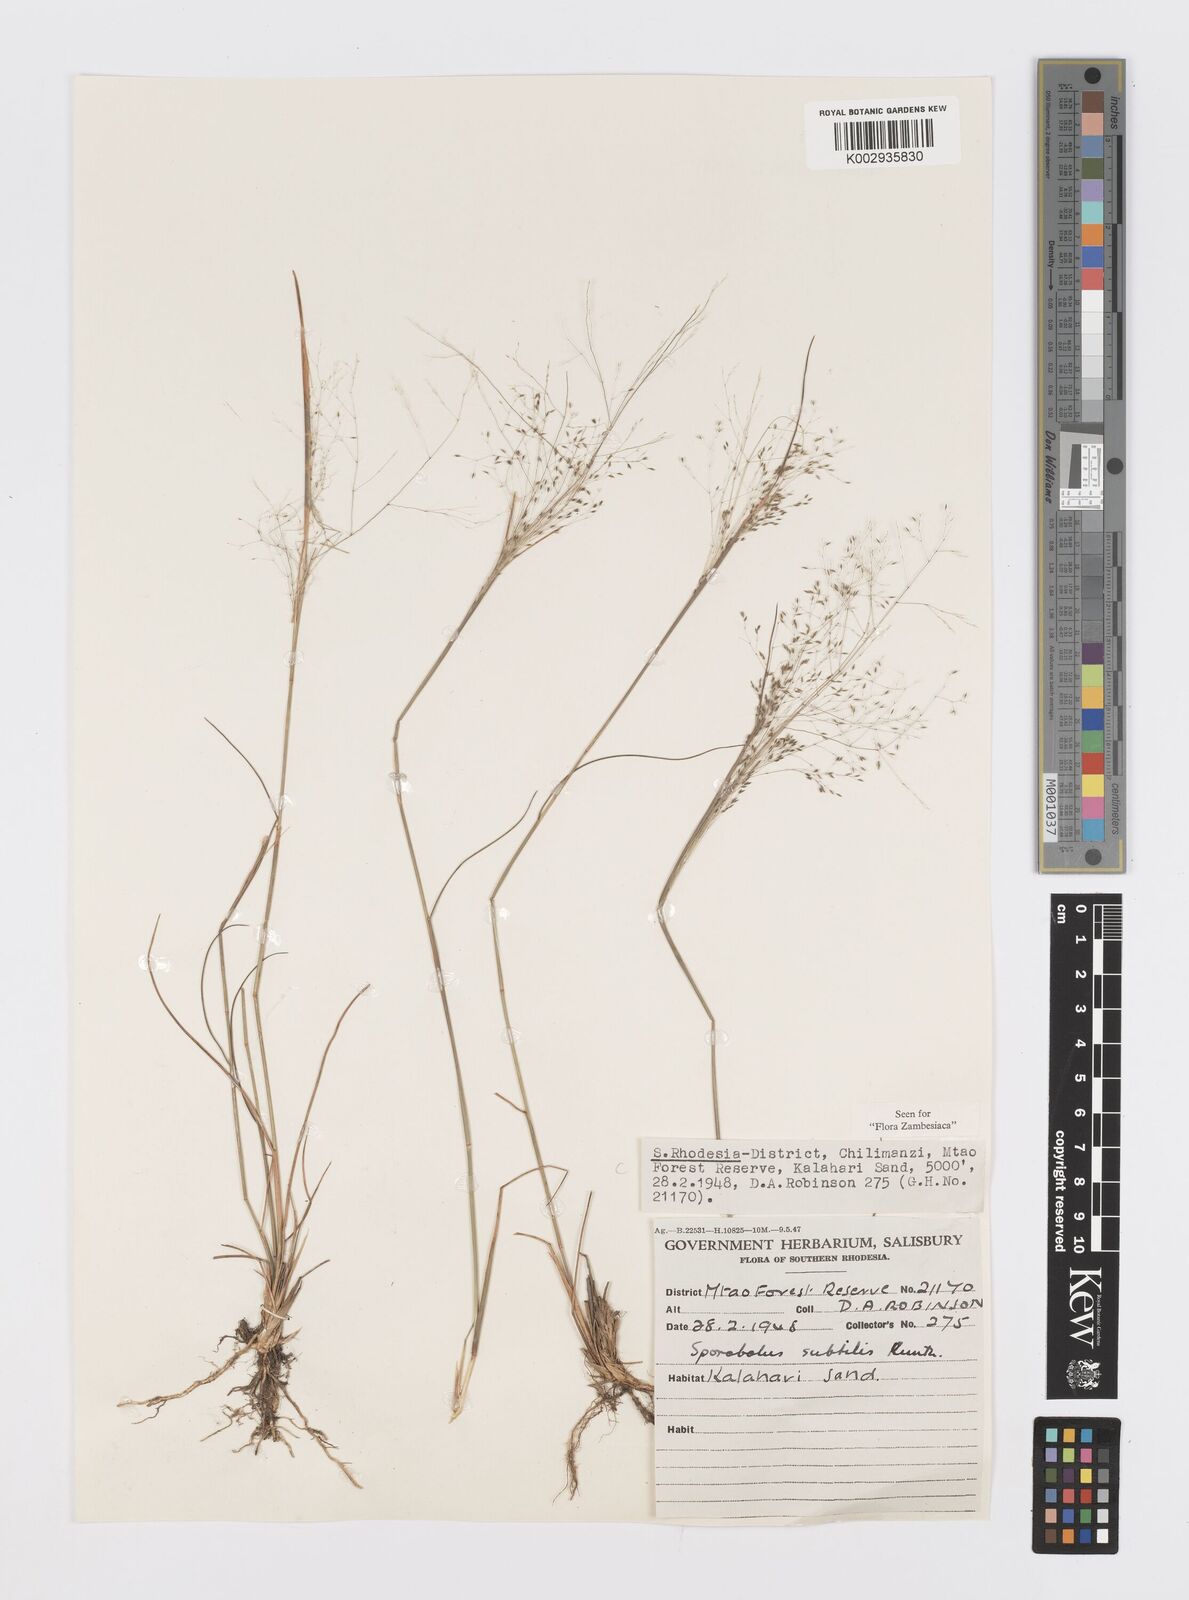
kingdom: Plantae
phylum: Tracheophyta
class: Liliopsida
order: Poales
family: Poaceae
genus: Sporobolus
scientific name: Sporobolus subtilis
